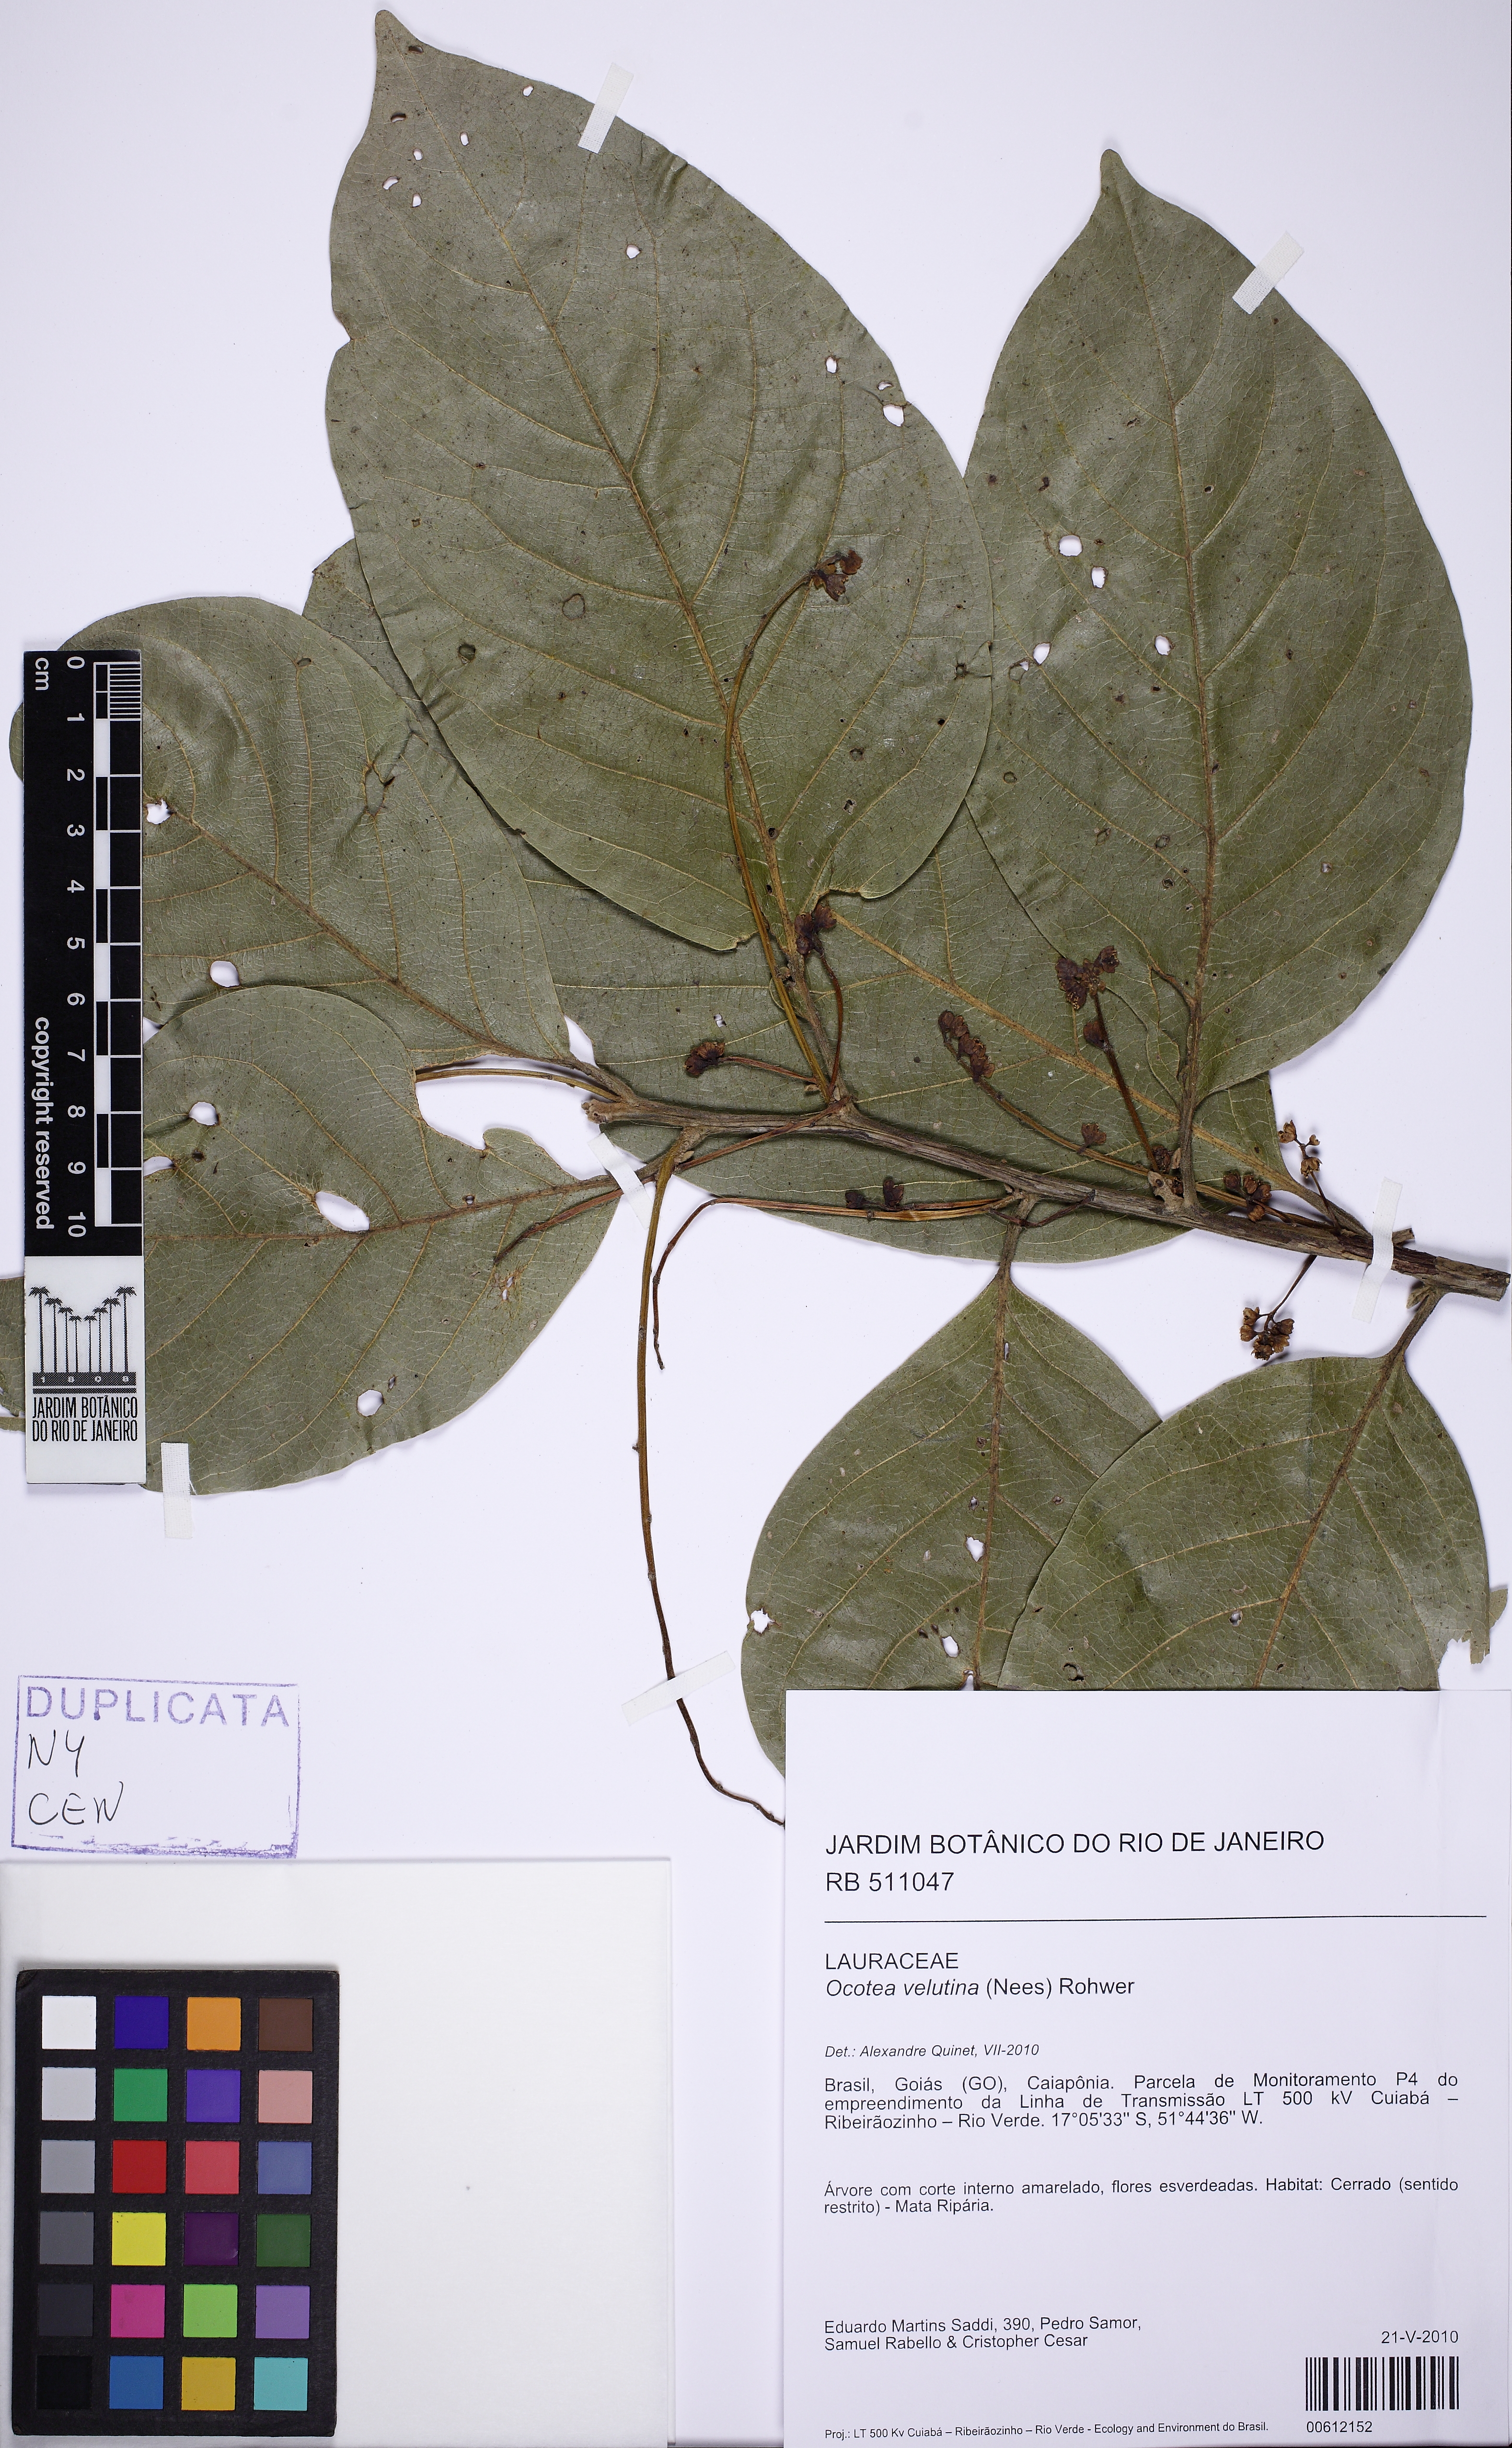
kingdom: Plantae
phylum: Tracheophyta
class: Magnoliopsida
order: Laurales
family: Lauraceae
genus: Andea
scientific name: Andea velutina
